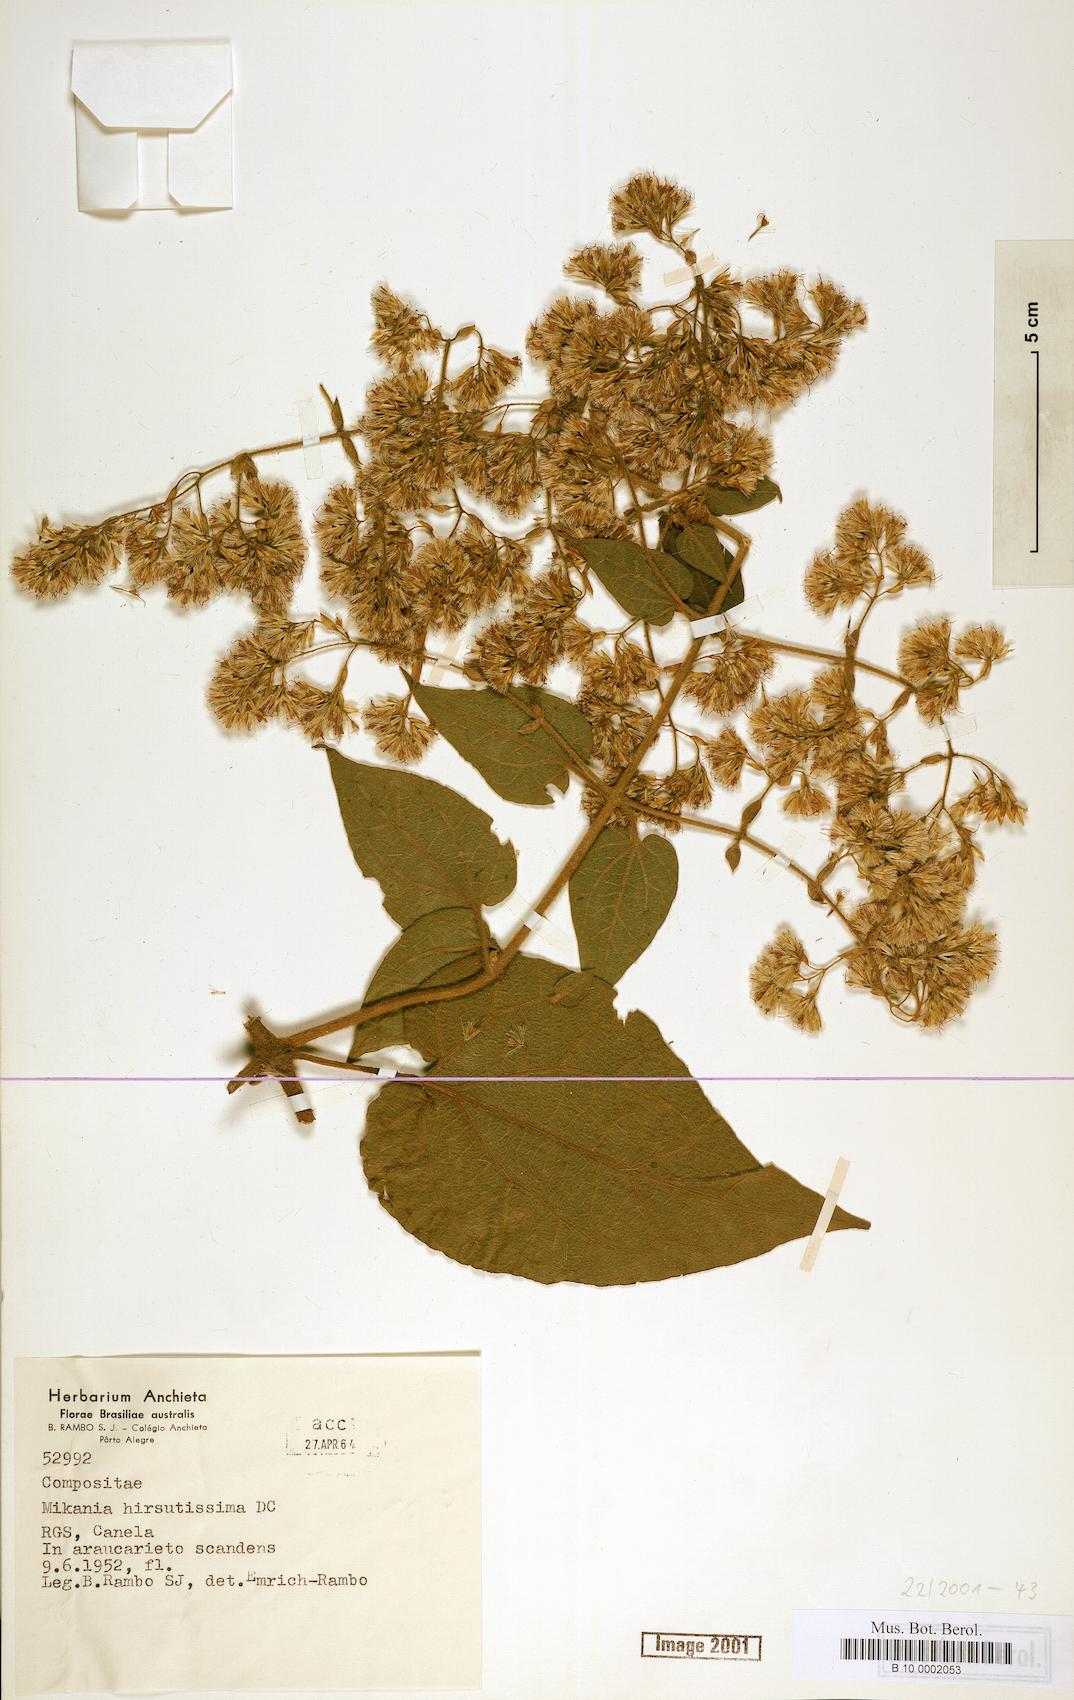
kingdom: Plantae
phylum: Tracheophyta
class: Magnoliopsida
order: Asterales
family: Asteraceae
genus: Mikania
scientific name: Mikania banisteriae
